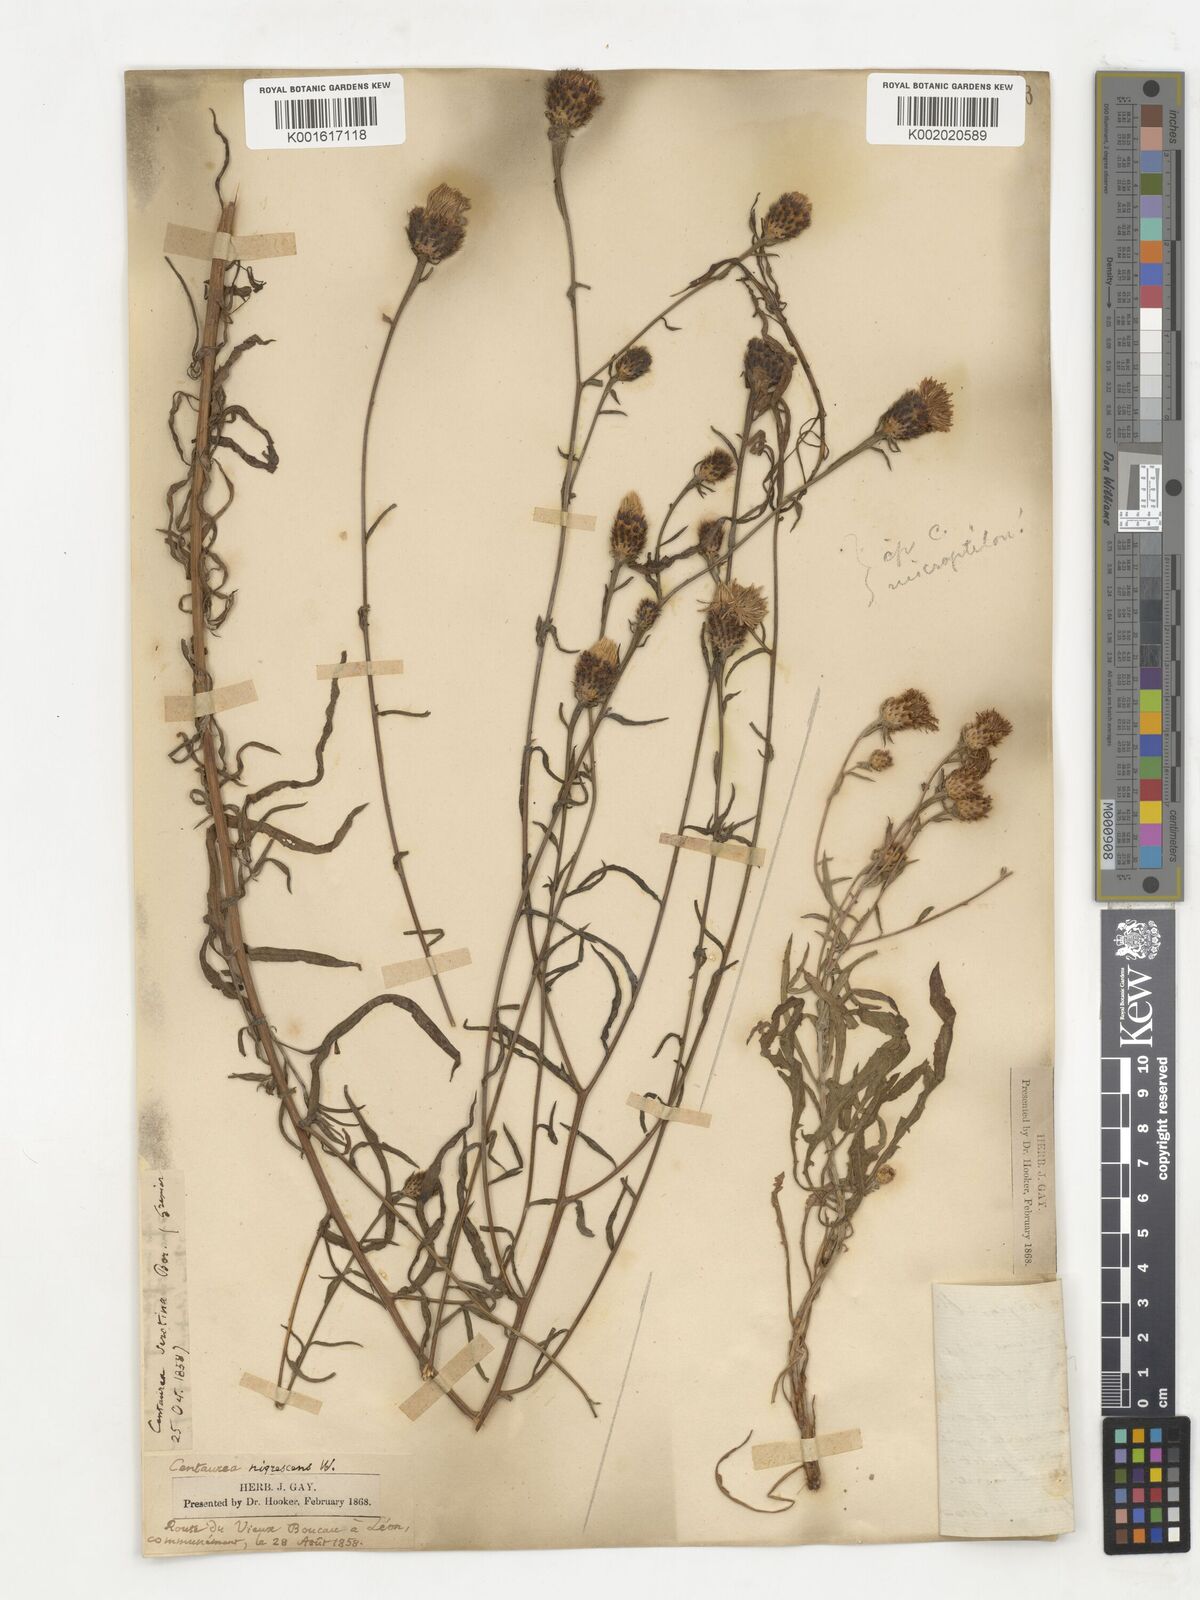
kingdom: Plantae
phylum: Tracheophyta
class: Magnoliopsida
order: Asterales
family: Asteraceae
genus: Centaurea
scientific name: Centaurea kerneriana
